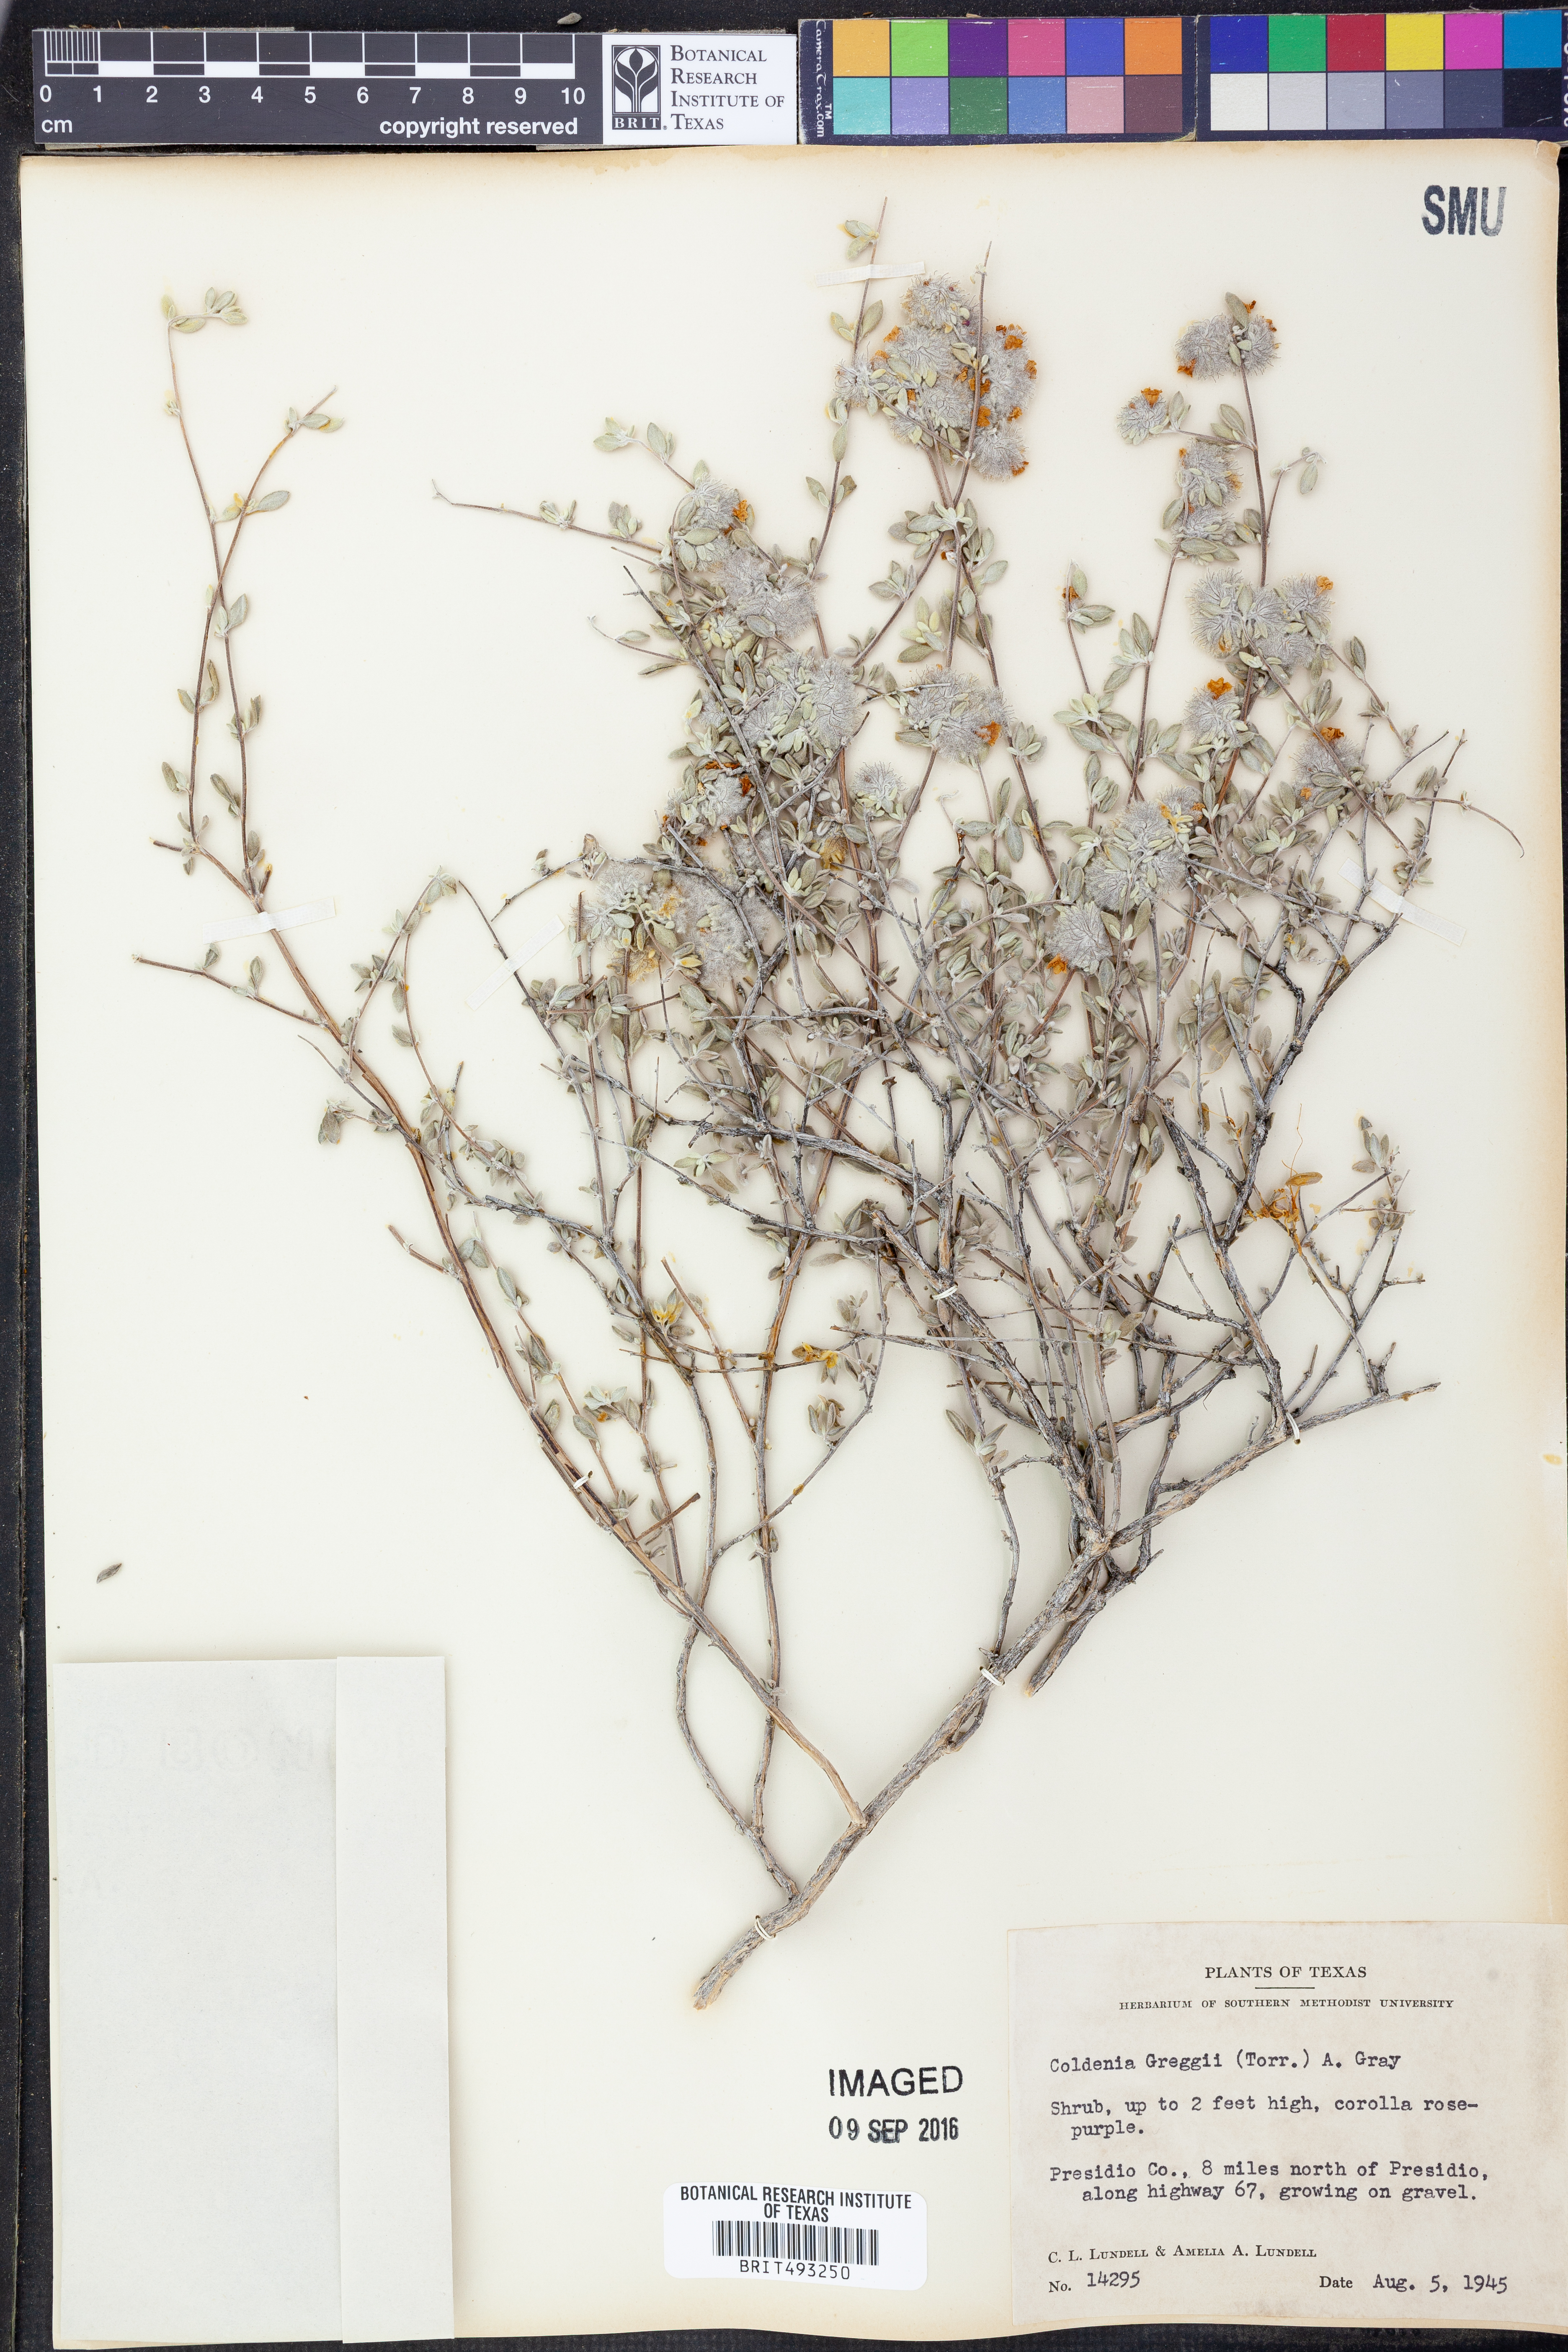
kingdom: Plantae
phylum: Tracheophyta
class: Magnoliopsida
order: Boraginales
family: Ehretiaceae
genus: Tiquilia
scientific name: Tiquilia greggii
